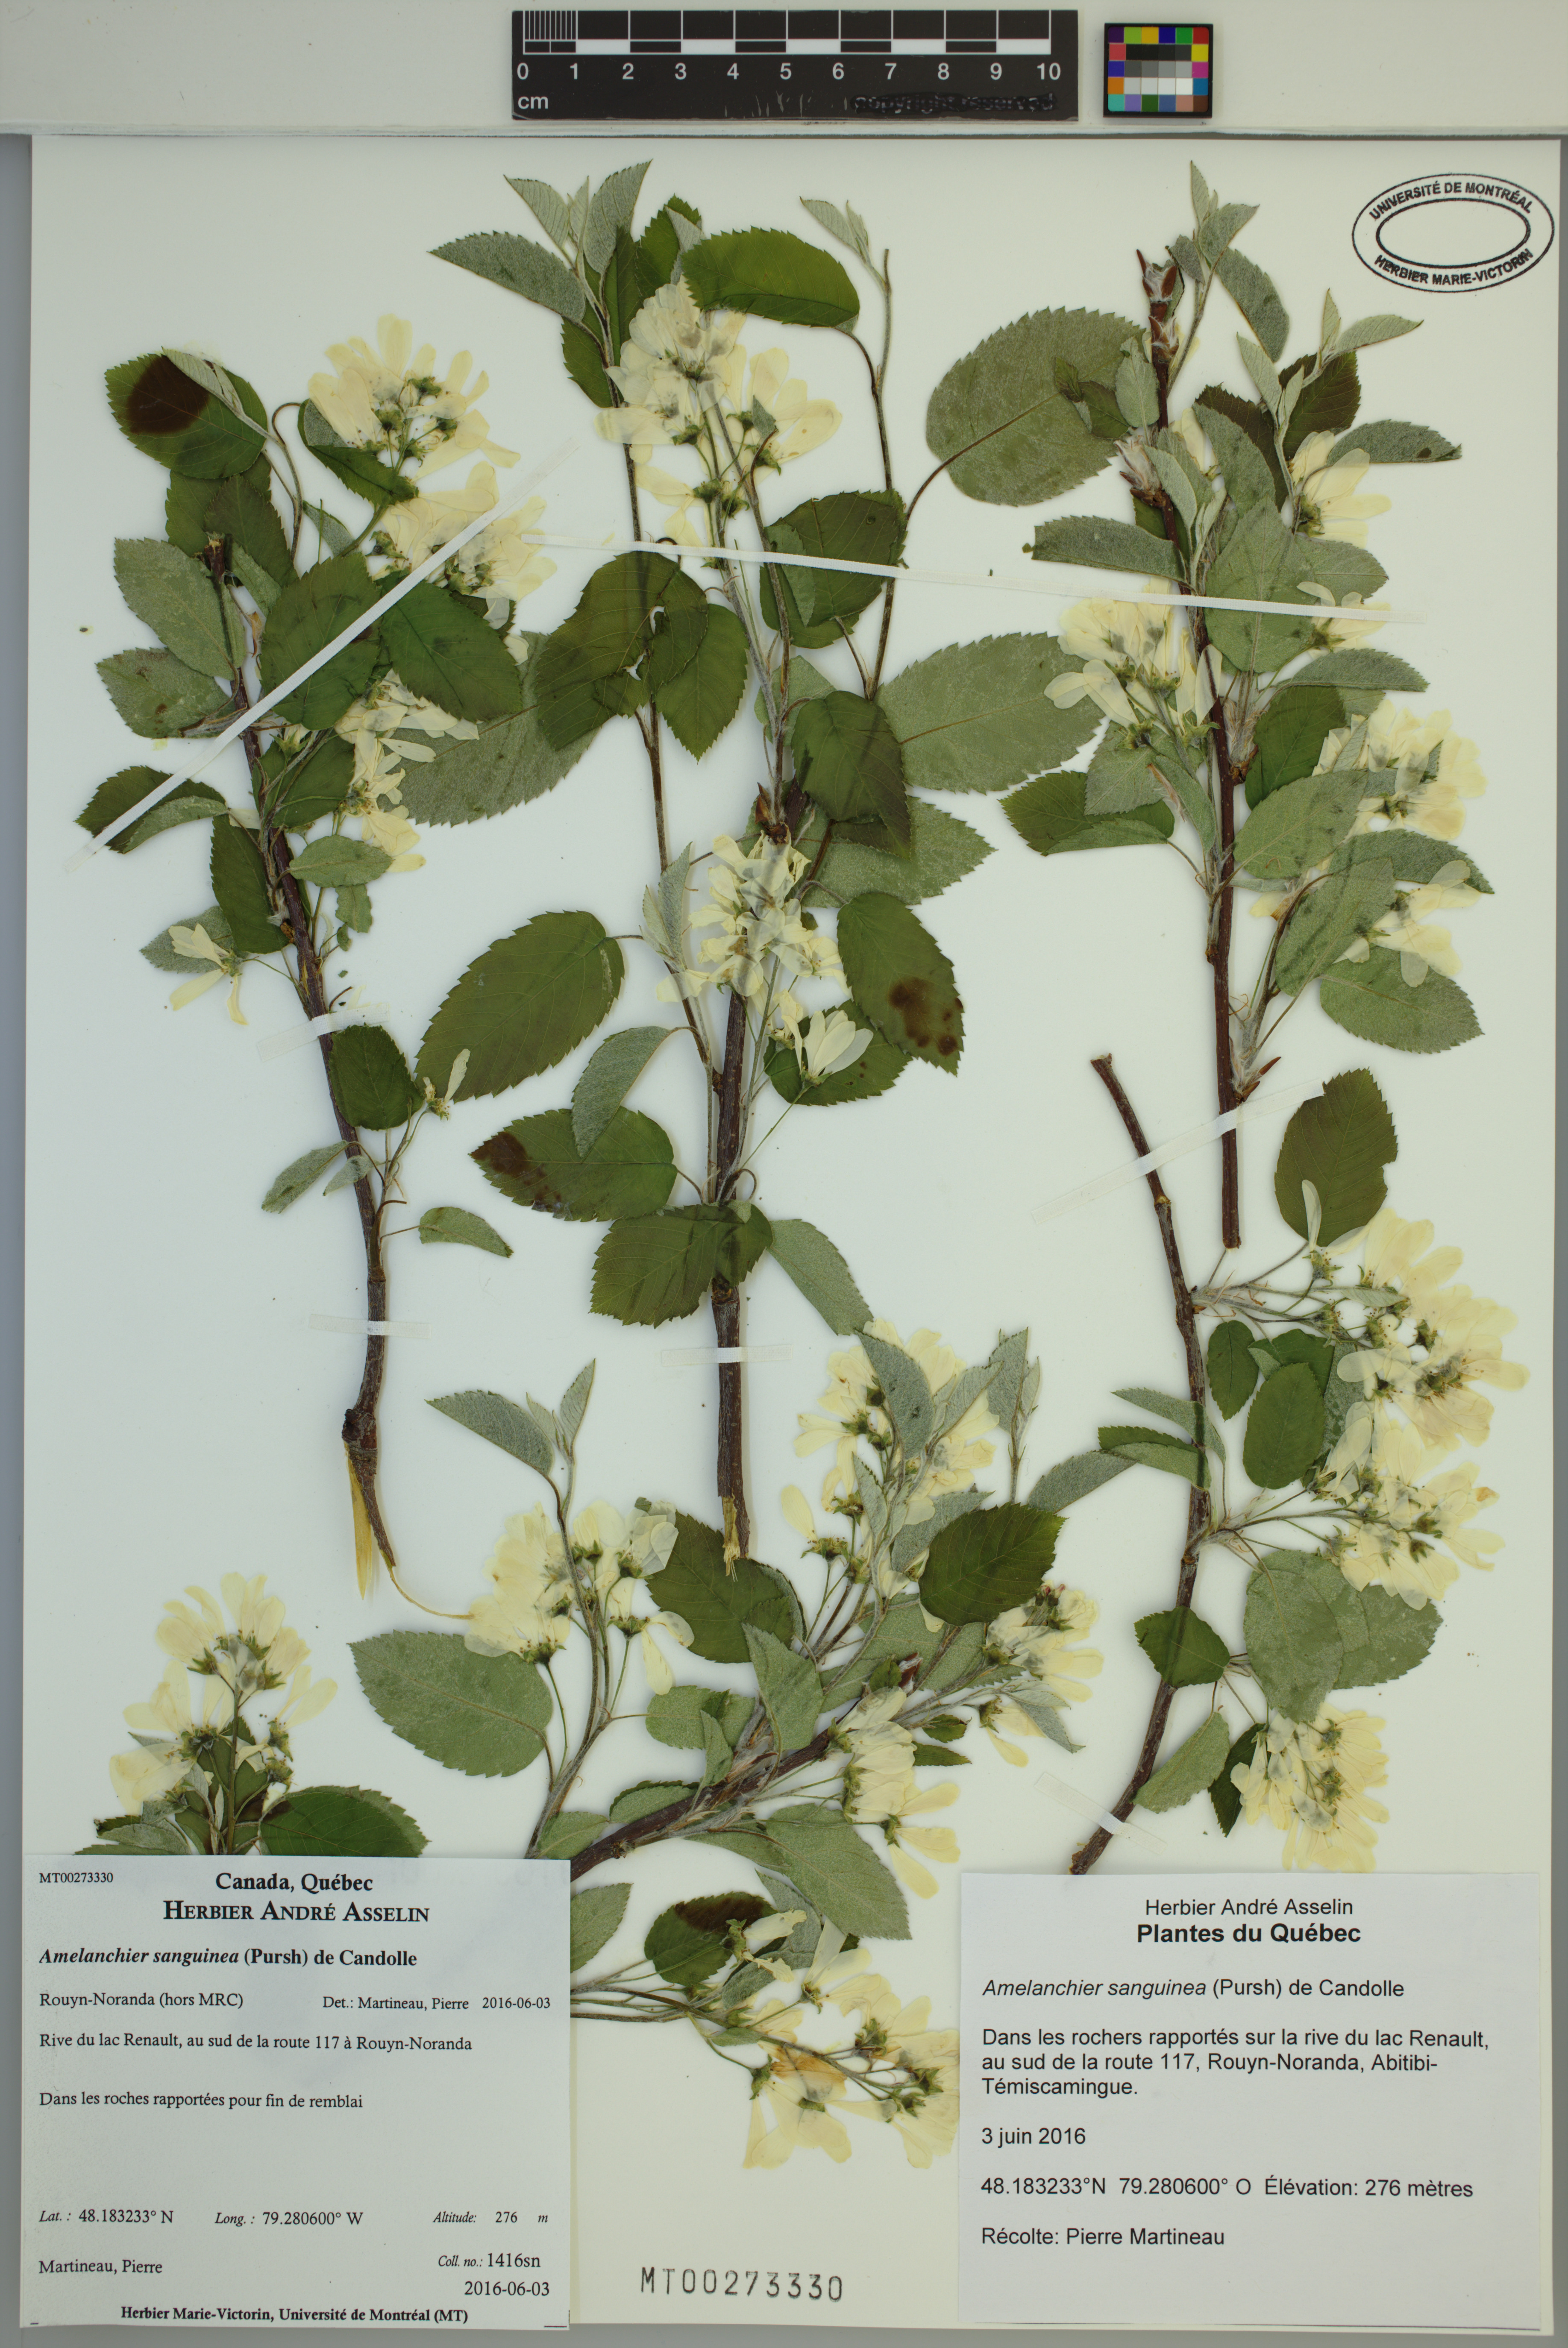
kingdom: Plantae
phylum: Tracheophyta
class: Magnoliopsida
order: Rosales
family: Rosaceae
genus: Amelanchier
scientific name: Amelanchier sanguinea
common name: Huron serviceberry
